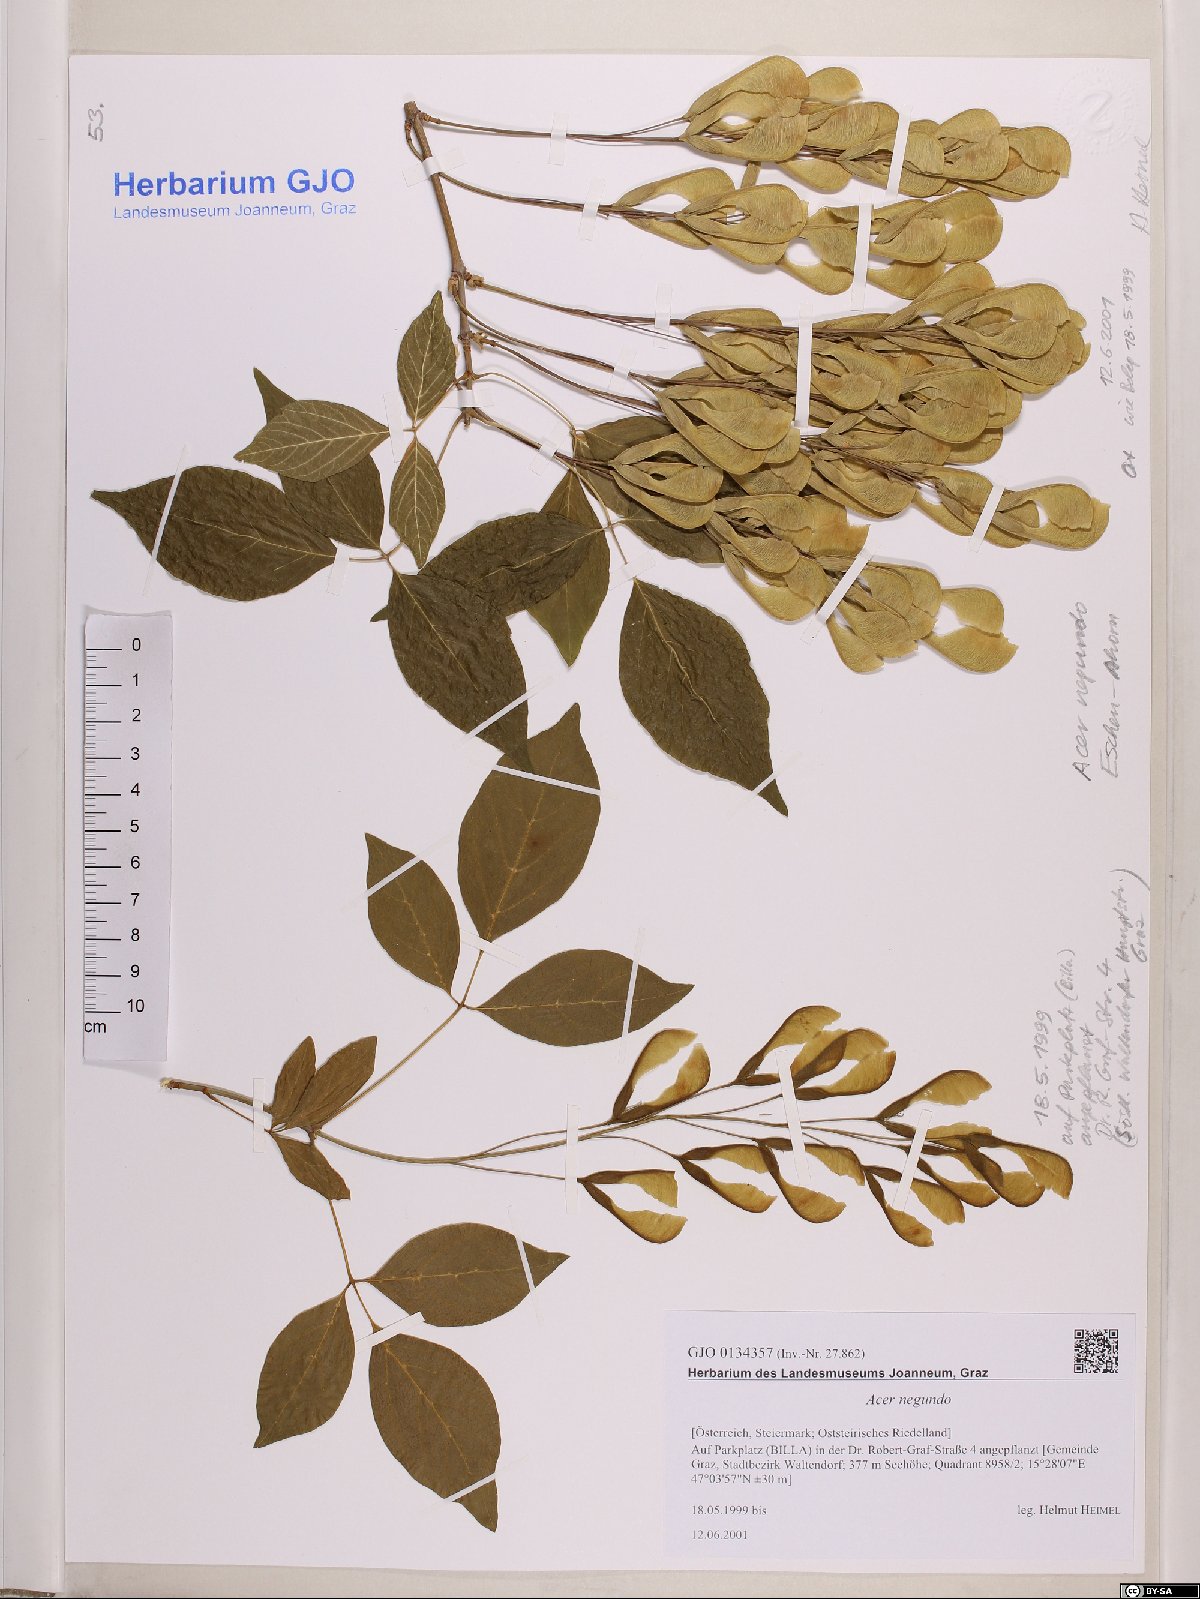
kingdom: Plantae
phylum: Tracheophyta
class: Magnoliopsida
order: Sapindales
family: Sapindaceae
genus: Acer
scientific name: Acer negundo
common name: Ashleaf maple
